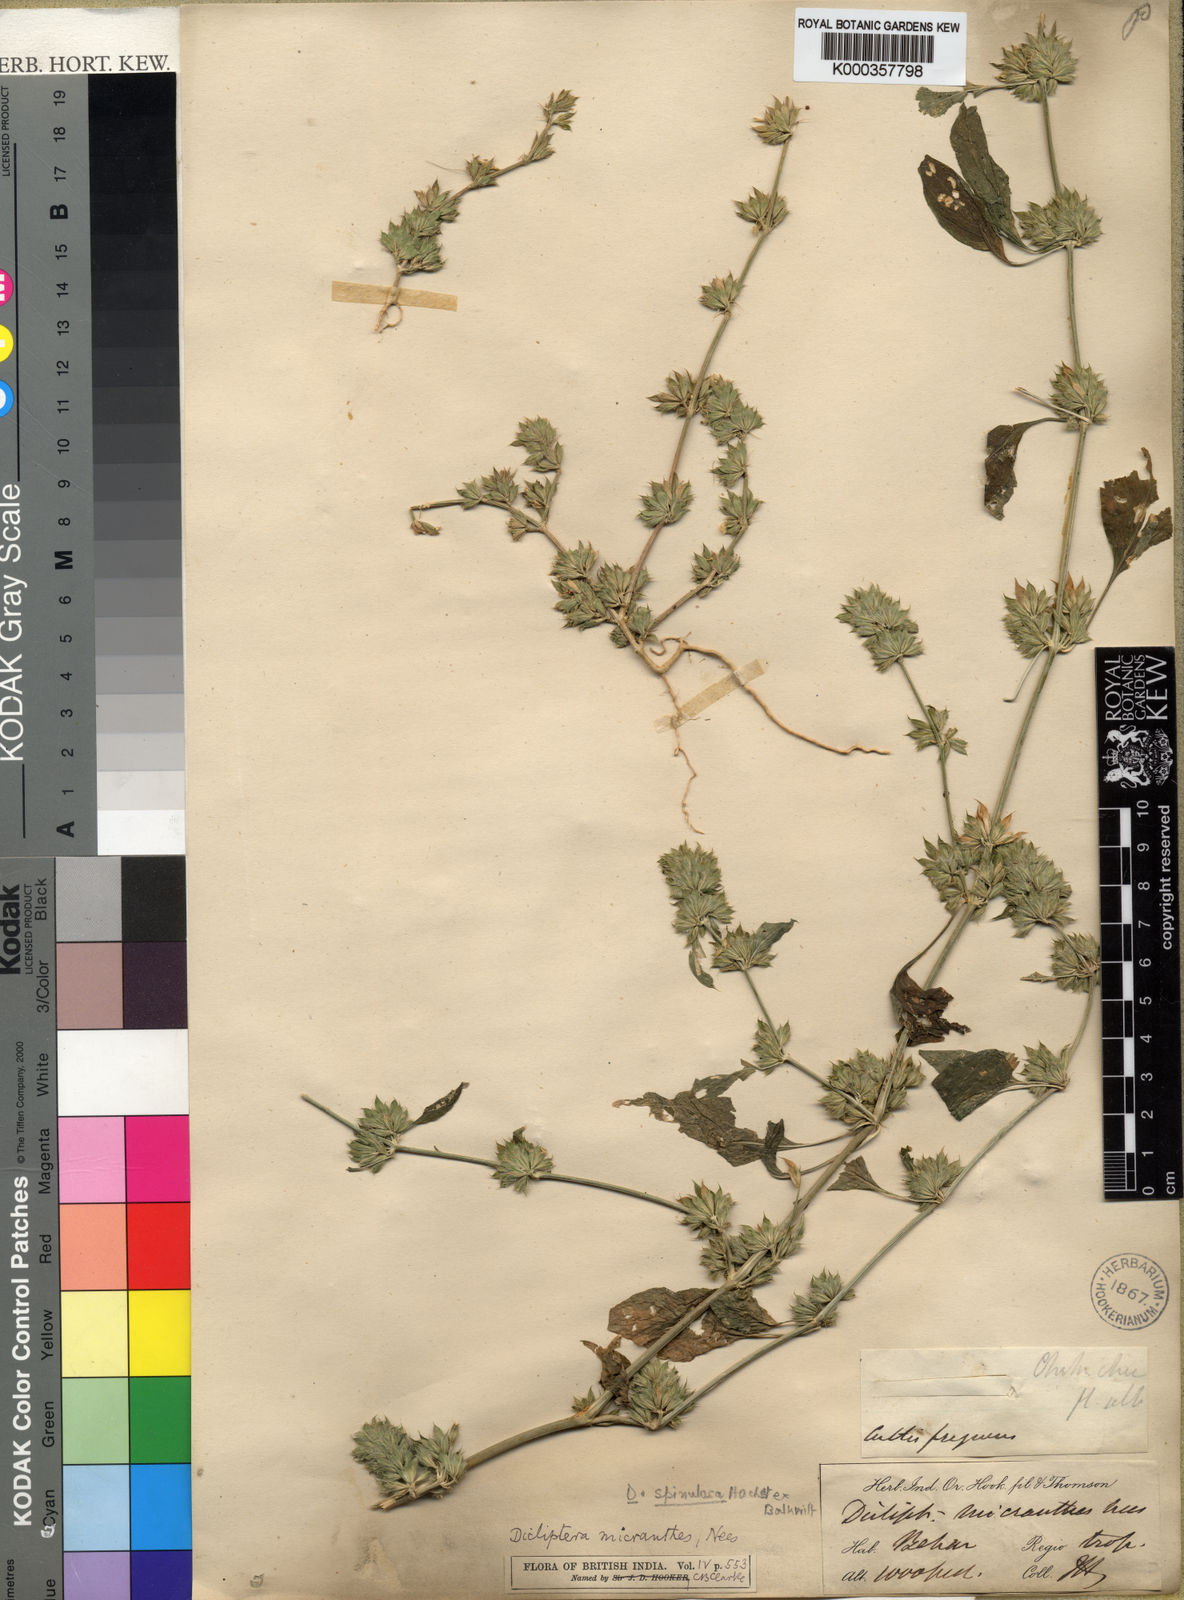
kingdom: Plantae
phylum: Tracheophyta
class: Magnoliopsida
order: Lamiales
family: Acanthaceae
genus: Dicliptera
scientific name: Dicliptera verticillata
